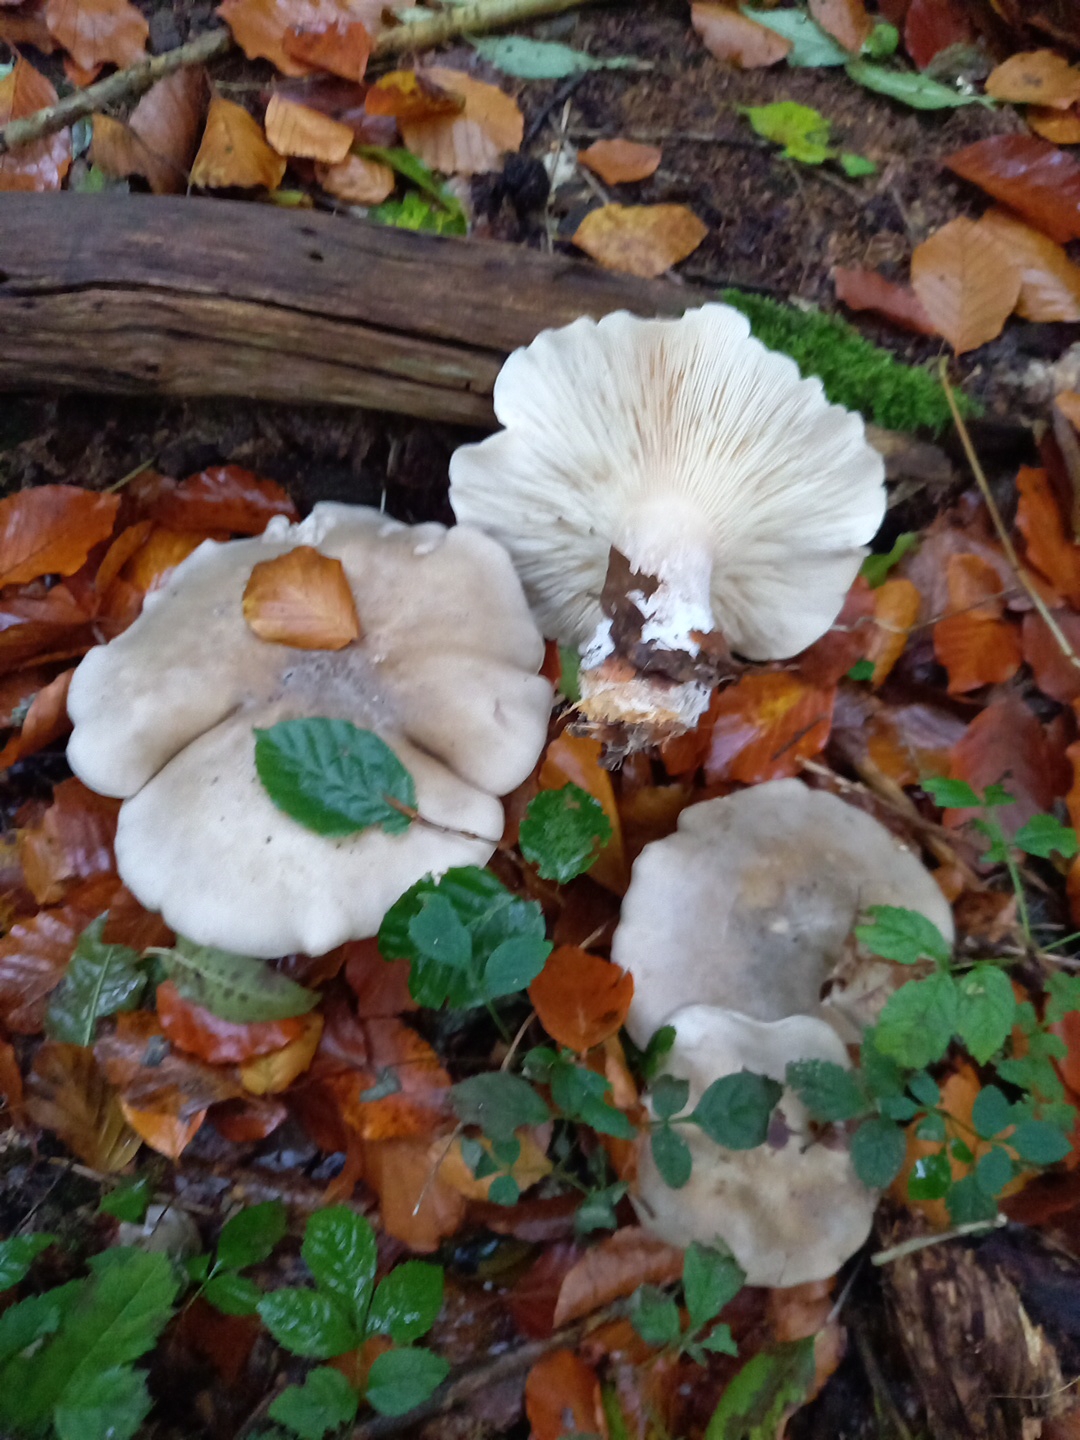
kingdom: Fungi
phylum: Basidiomycota
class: Agaricomycetes
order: Agaricales
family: Tricholomataceae
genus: Clitocybe
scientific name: Clitocybe nebularis
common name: tåge-tragthat
